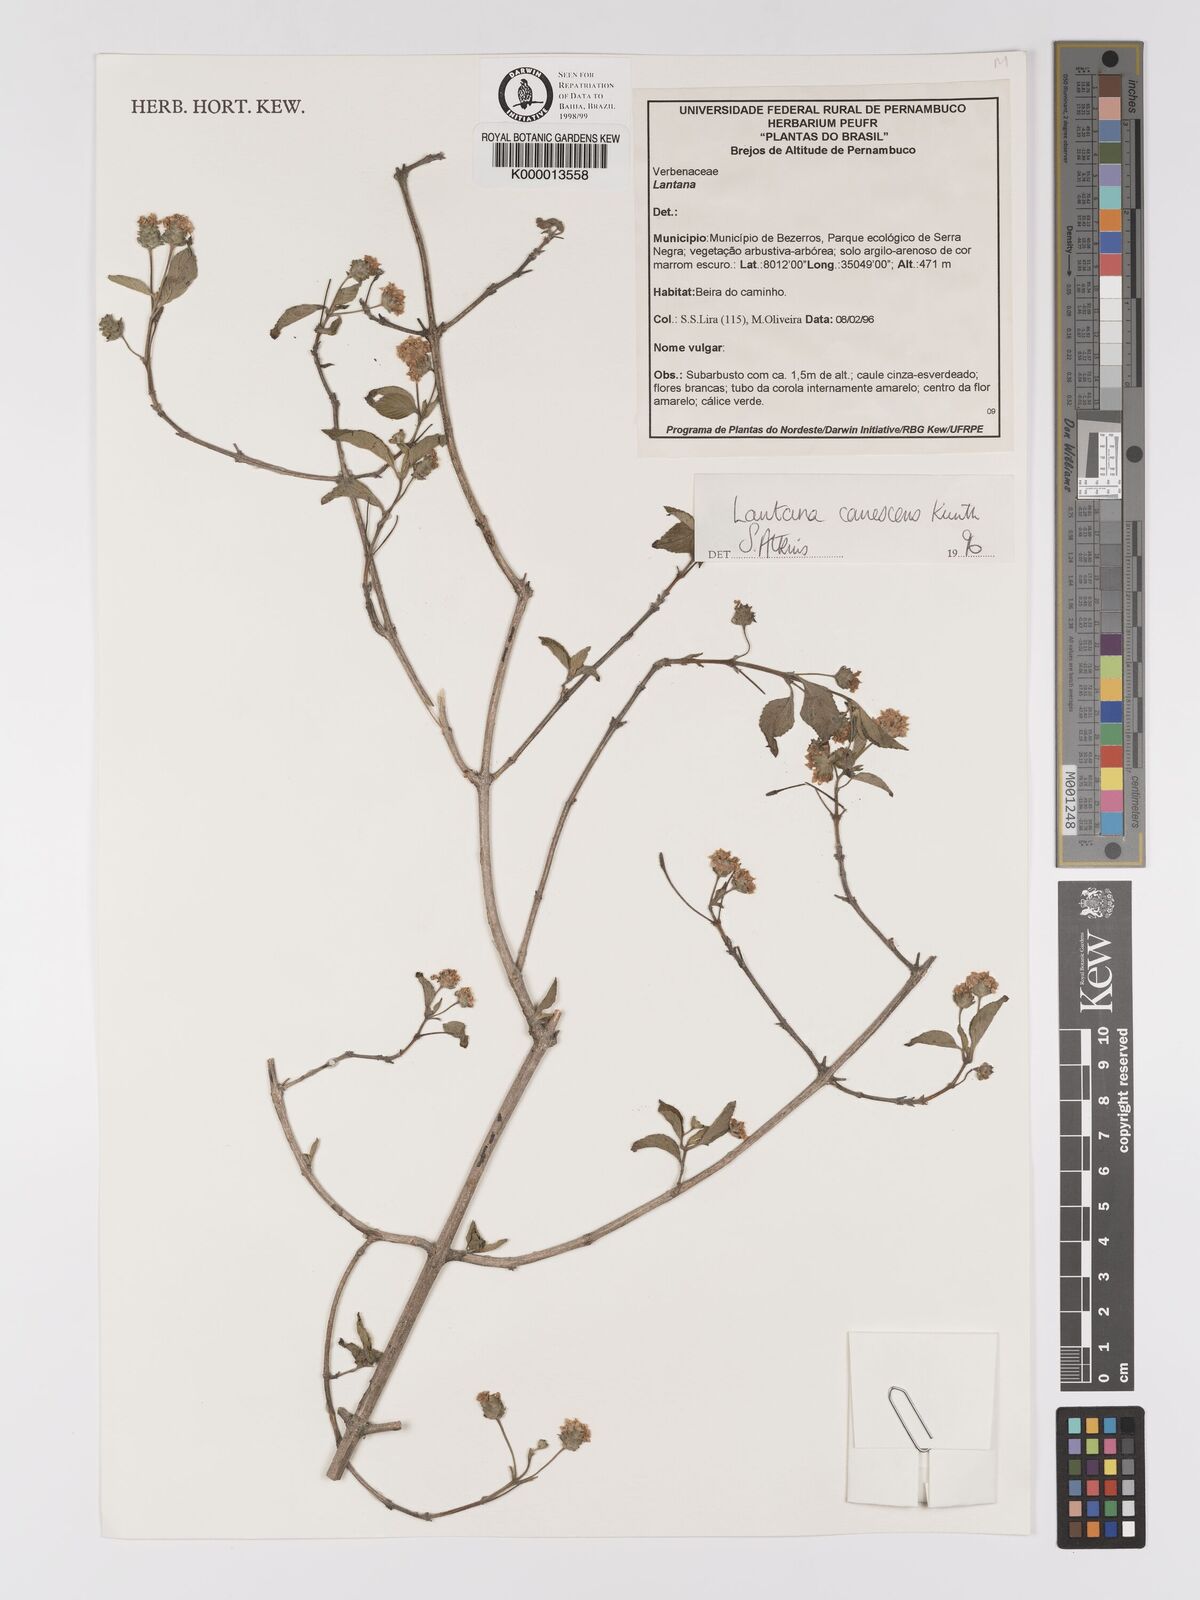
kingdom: Plantae
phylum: Tracheophyta
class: Magnoliopsida
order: Lamiales
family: Verbenaceae
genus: Lantana
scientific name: Lantana canescens
